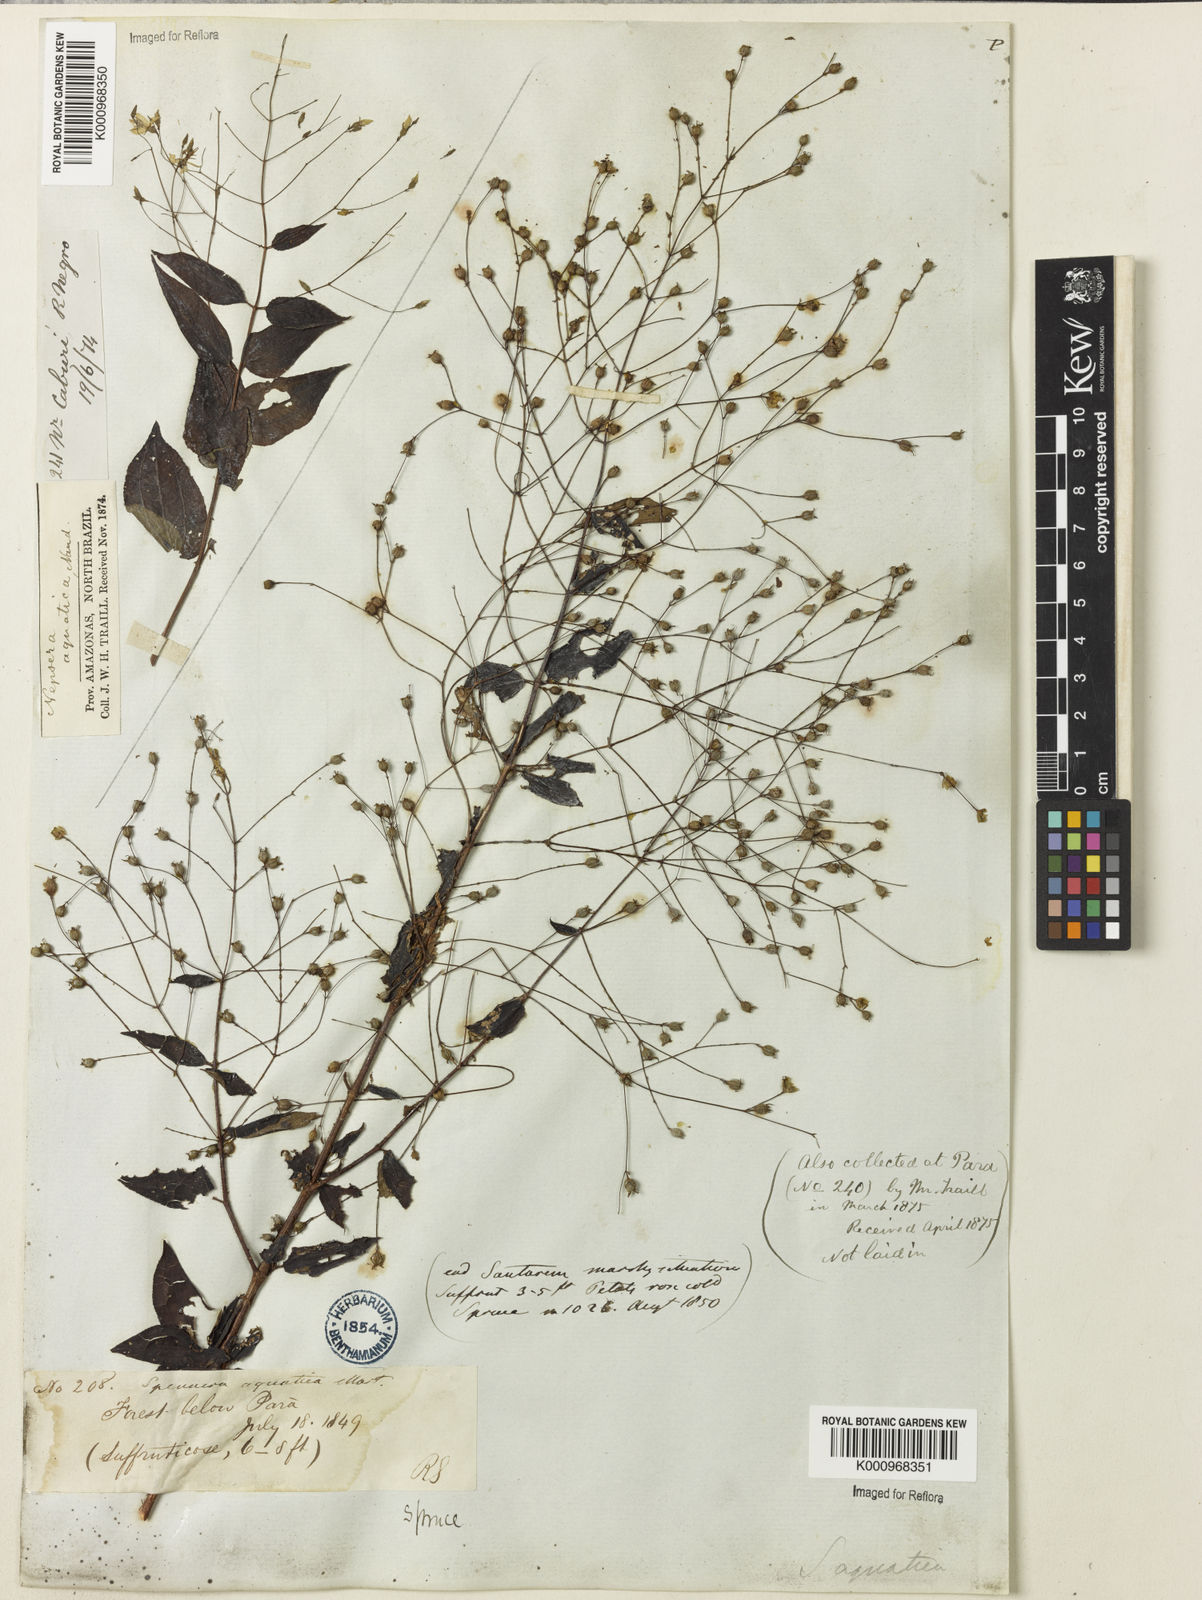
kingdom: Plantae
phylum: Tracheophyta
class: Magnoliopsida
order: Myrtales
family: Melastomataceae
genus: Nepsera
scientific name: Nepsera aquatica
